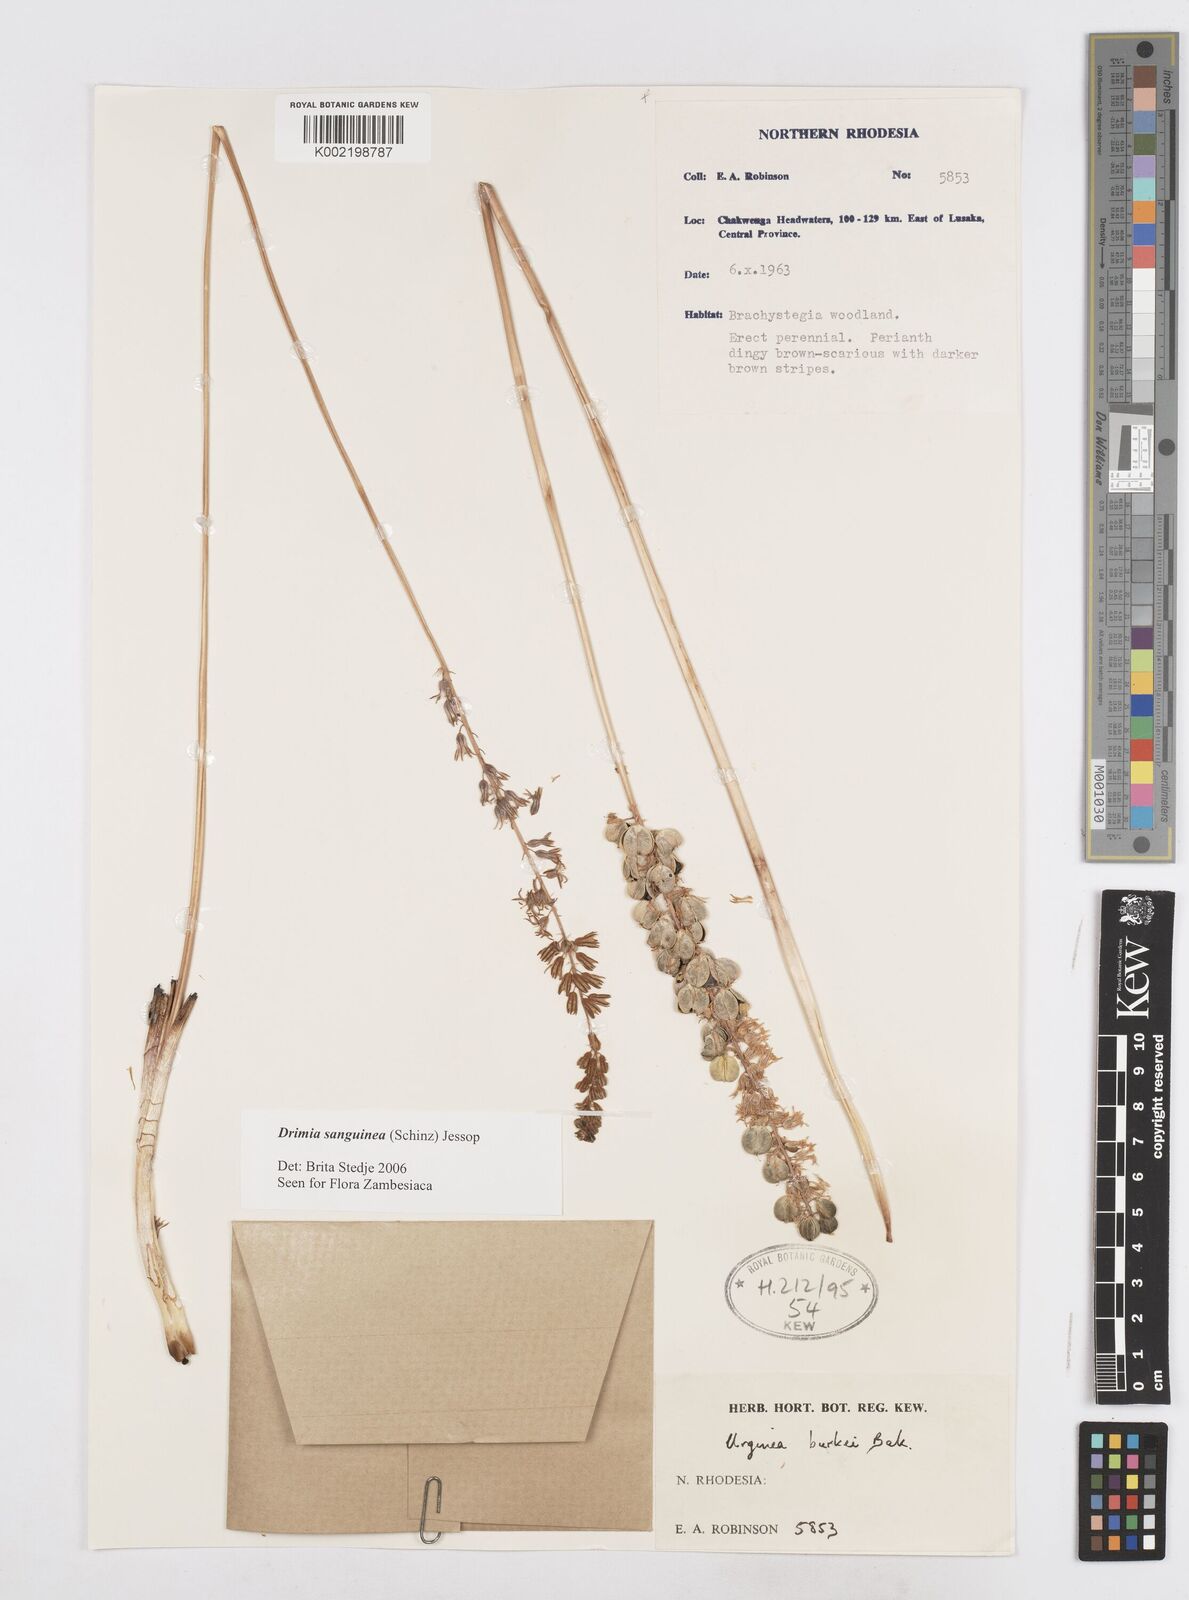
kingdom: Plantae
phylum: Tracheophyta
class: Liliopsida
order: Asparagales
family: Asparagaceae
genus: Drimia
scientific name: Drimia sanguinea
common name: Transvaal slangkop
